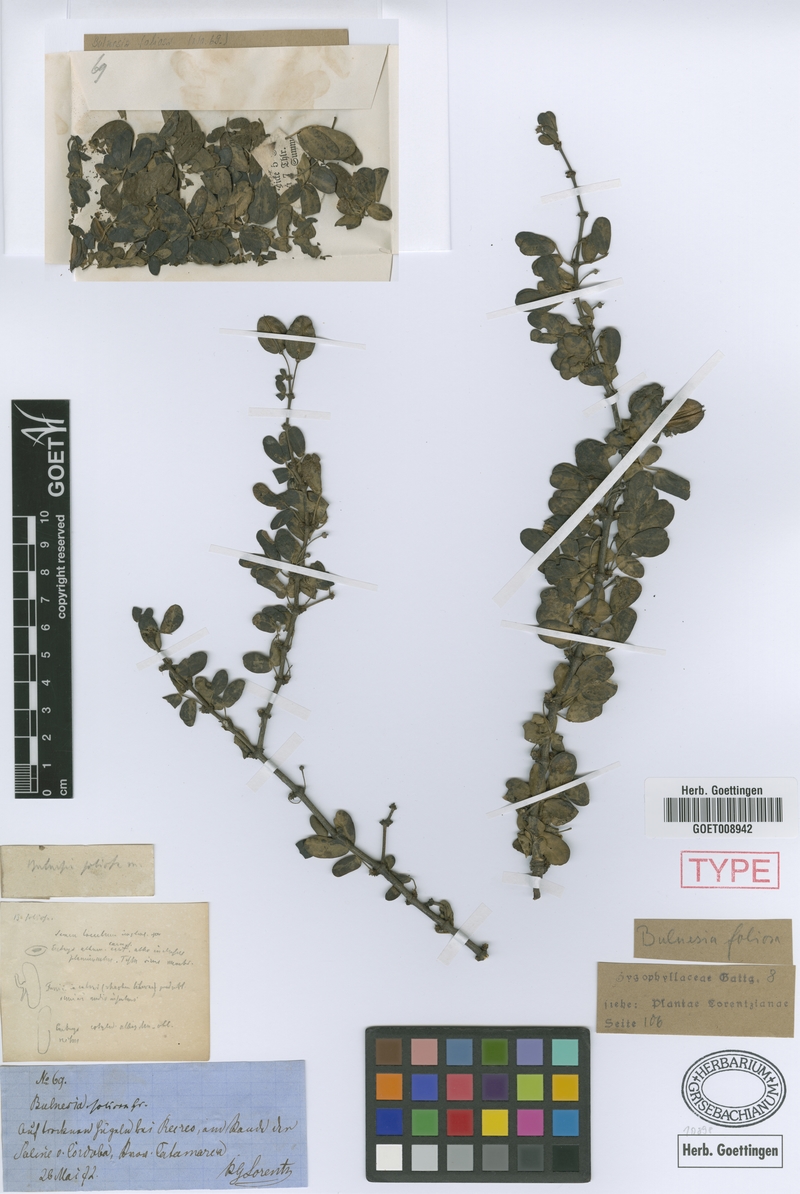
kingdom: Plantae
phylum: Tracheophyta
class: Magnoliopsida
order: Zygophyllales
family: Zygophyllaceae
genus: Bulnesia
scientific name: Bulnesia foliosa
